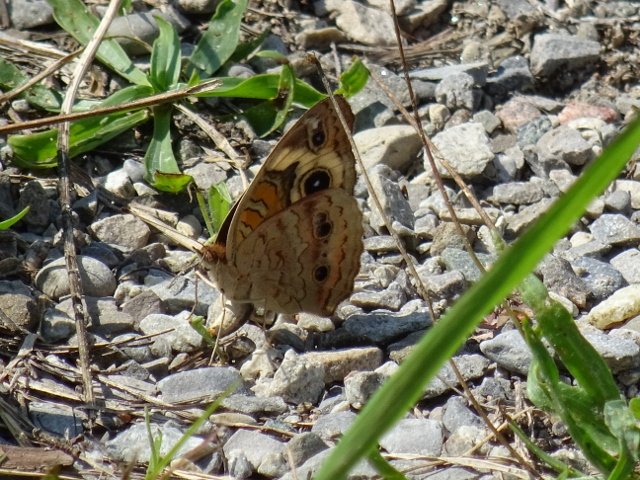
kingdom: Animalia
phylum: Arthropoda
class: Insecta
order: Lepidoptera
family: Nymphalidae
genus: Junonia
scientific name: Junonia coenia
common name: Common Buckeye
